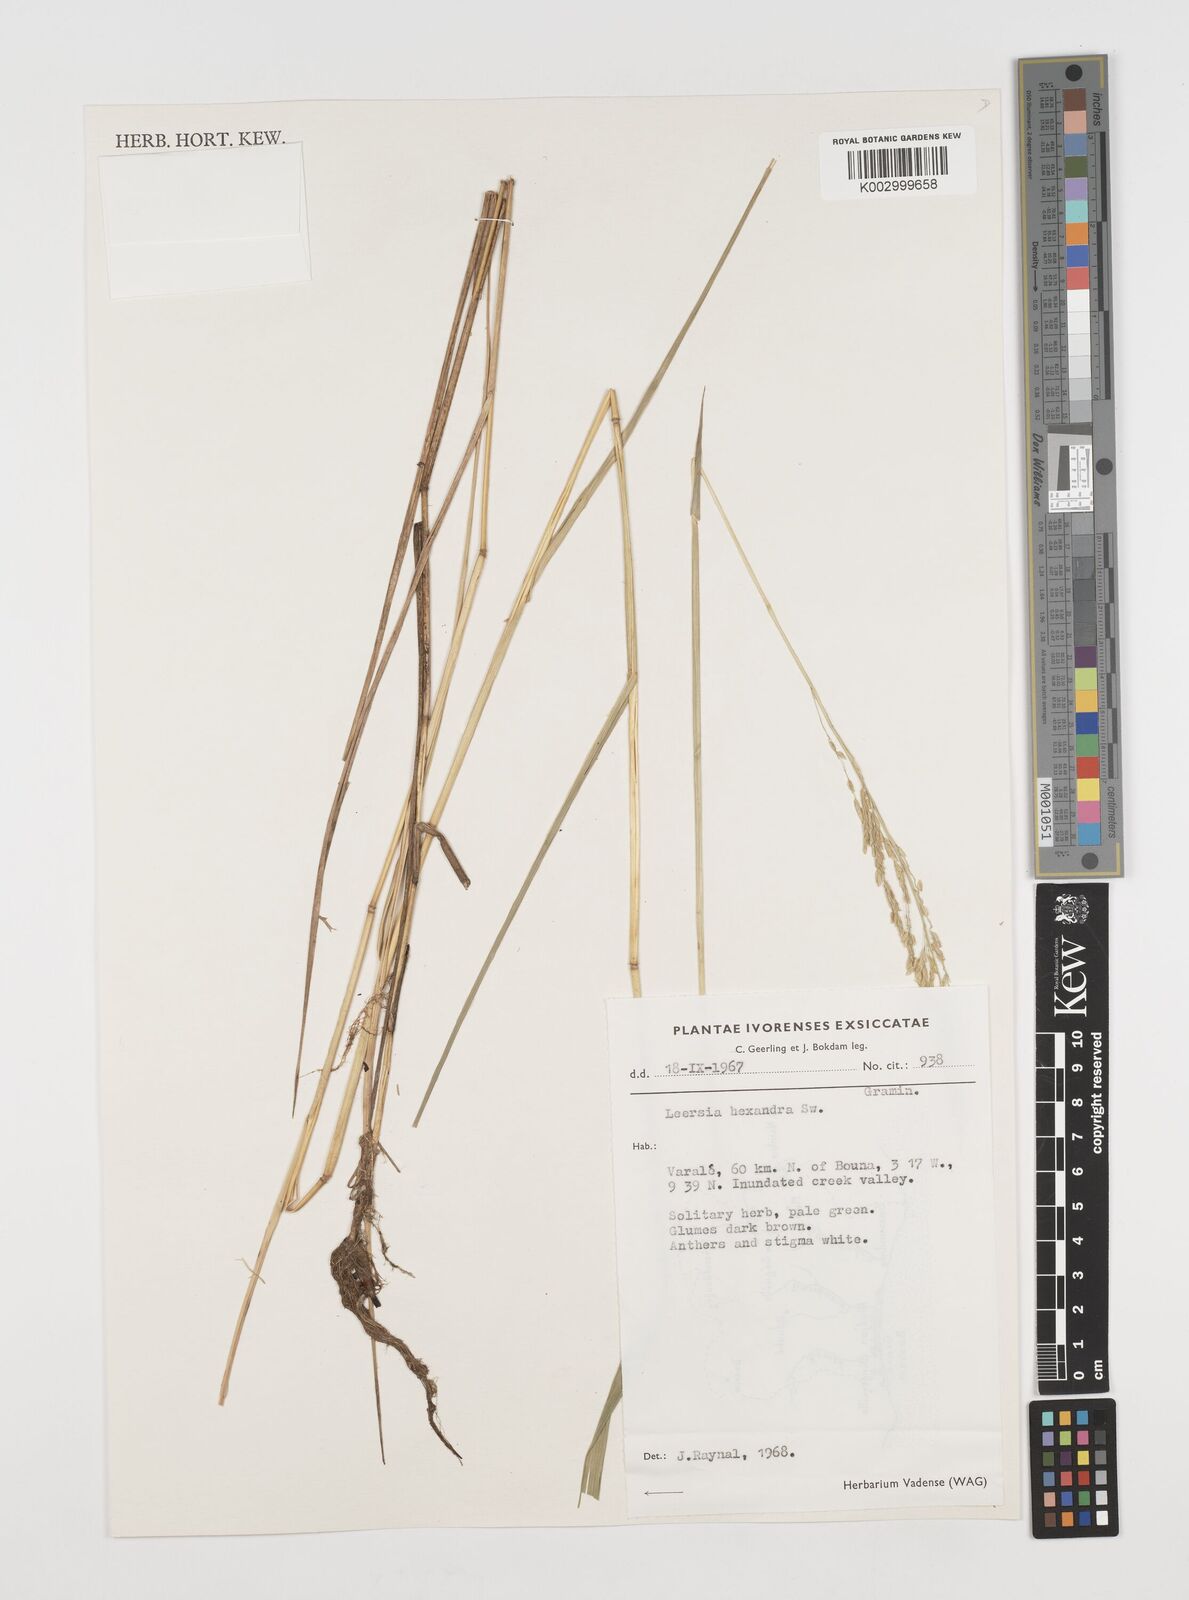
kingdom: Plantae
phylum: Tracheophyta
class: Liliopsida
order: Poales
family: Poaceae
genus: Leersia
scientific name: Leersia hexandra
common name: Southern cut grass
